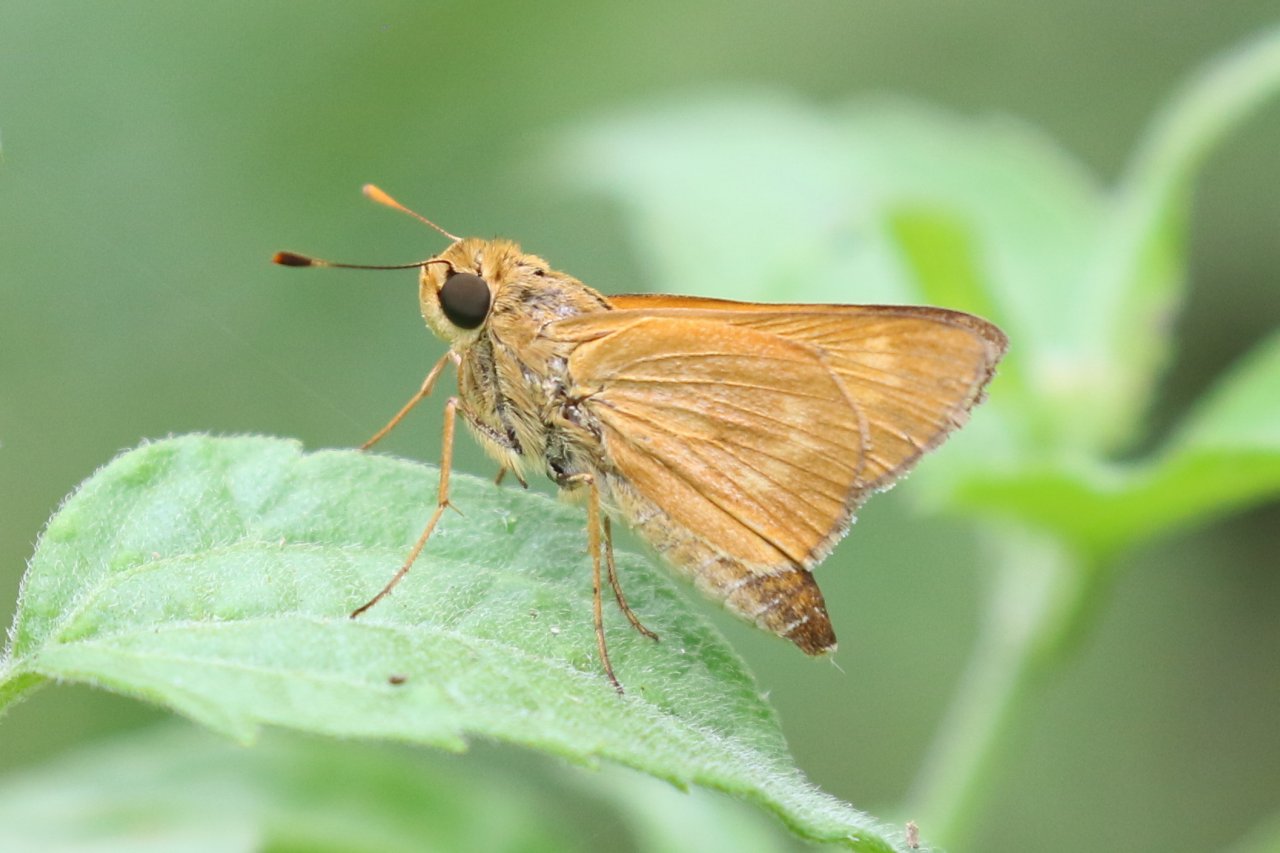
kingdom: Animalia
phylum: Arthropoda
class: Insecta
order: Lepidoptera
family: Hesperiidae
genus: Mellana
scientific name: Mellana eulogius
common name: Common Mellana
